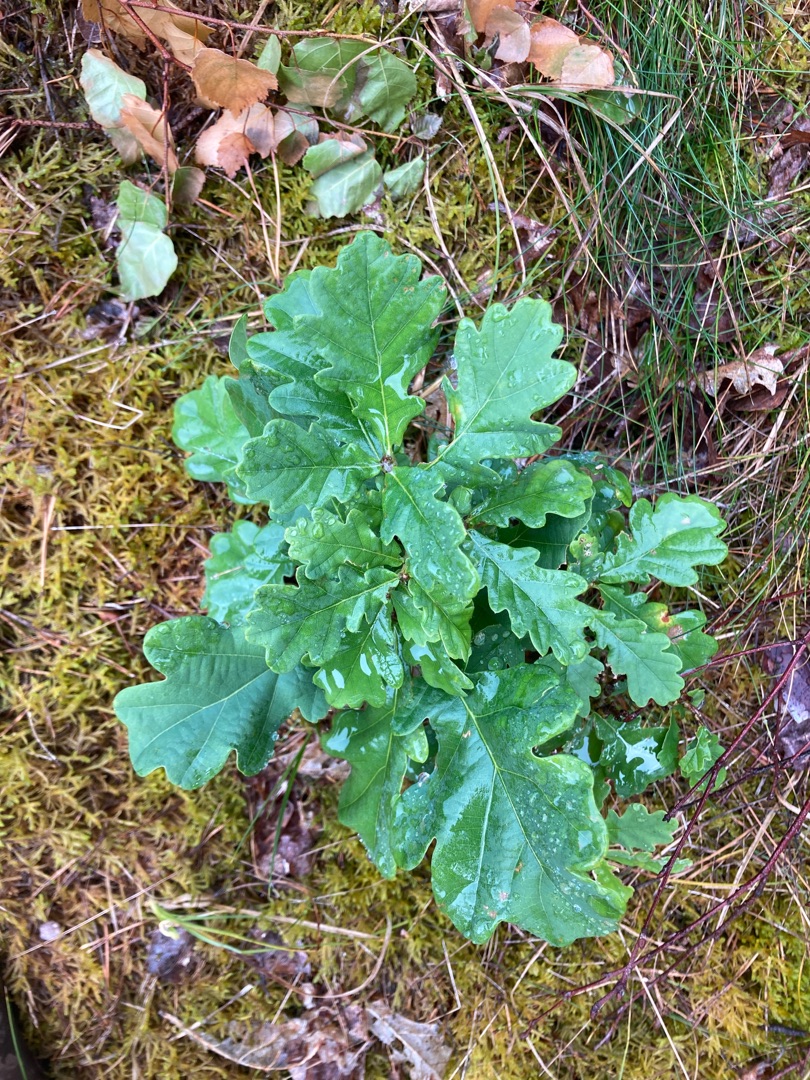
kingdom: Plantae
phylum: Tracheophyta
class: Magnoliopsida
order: Fagales
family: Fagaceae
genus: Quercus
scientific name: Quercus robur
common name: Stilk-eg/almindelig eg
